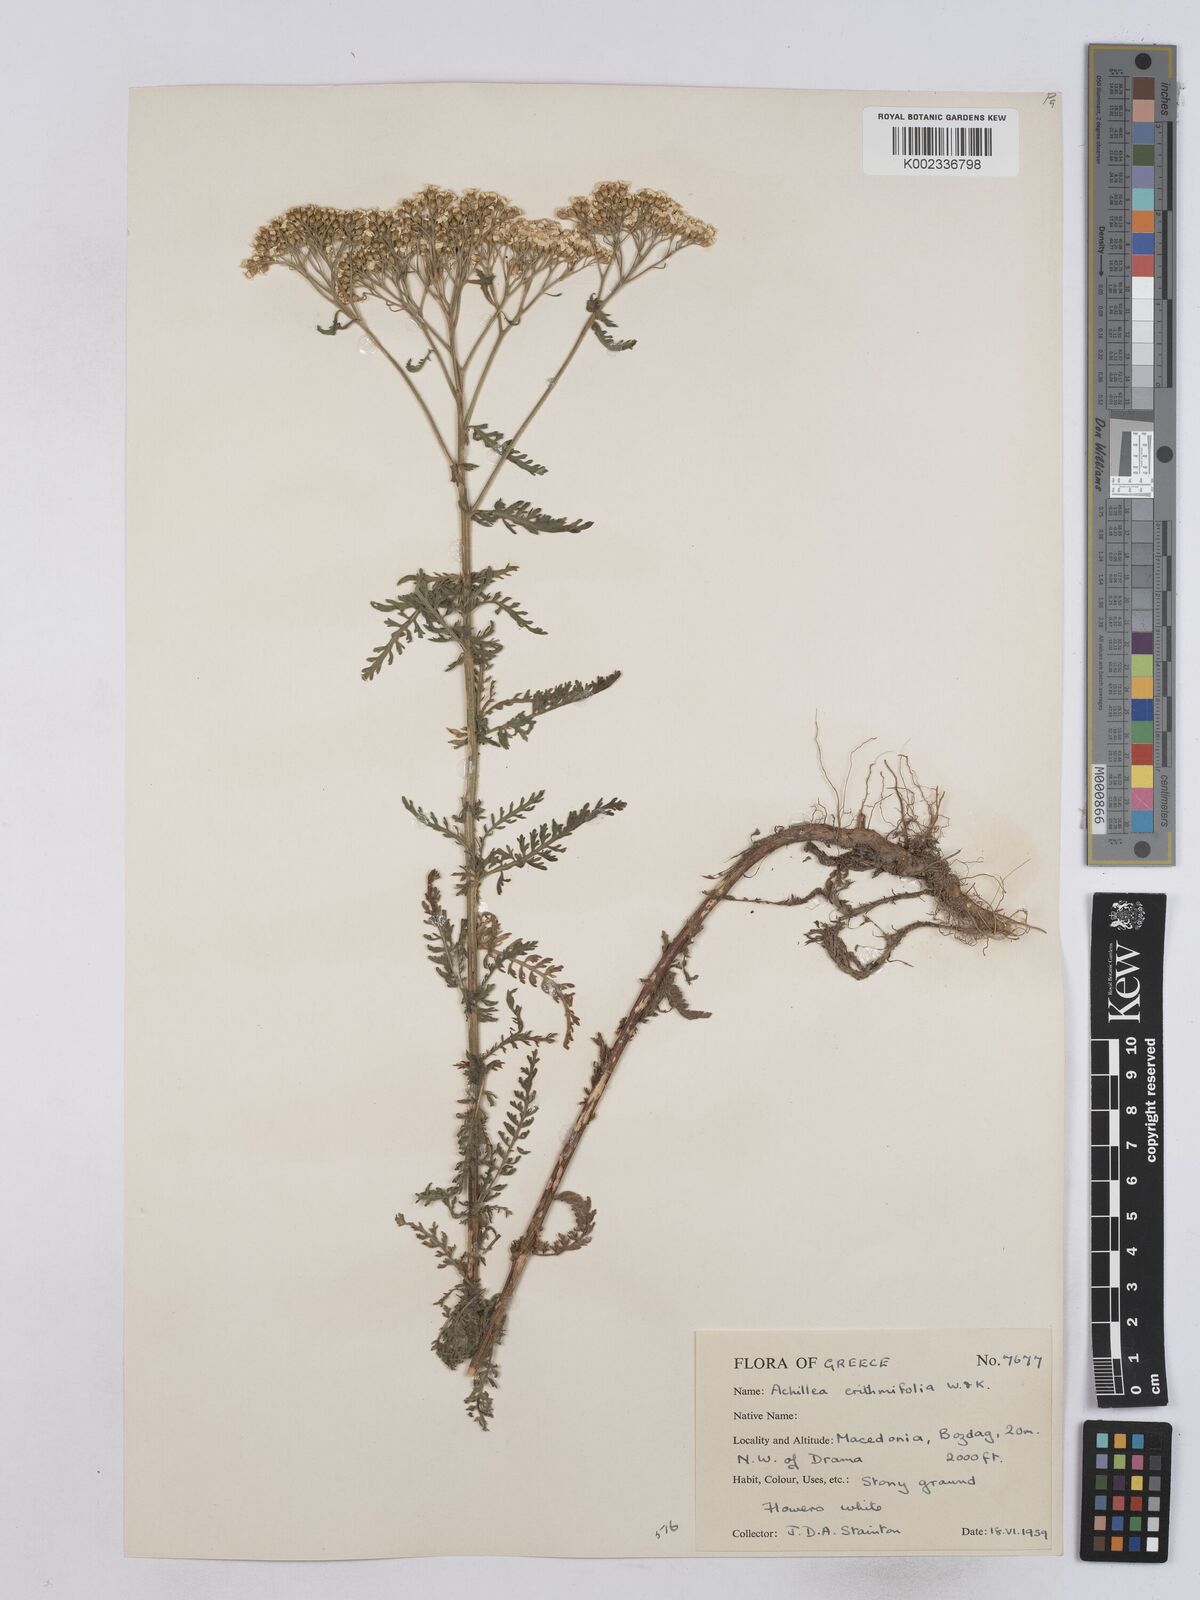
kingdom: Plantae
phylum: Tracheophyta
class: Magnoliopsida
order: Asterales
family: Asteraceae
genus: Achillea
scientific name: Achillea crithmifolia
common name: Yarrow
